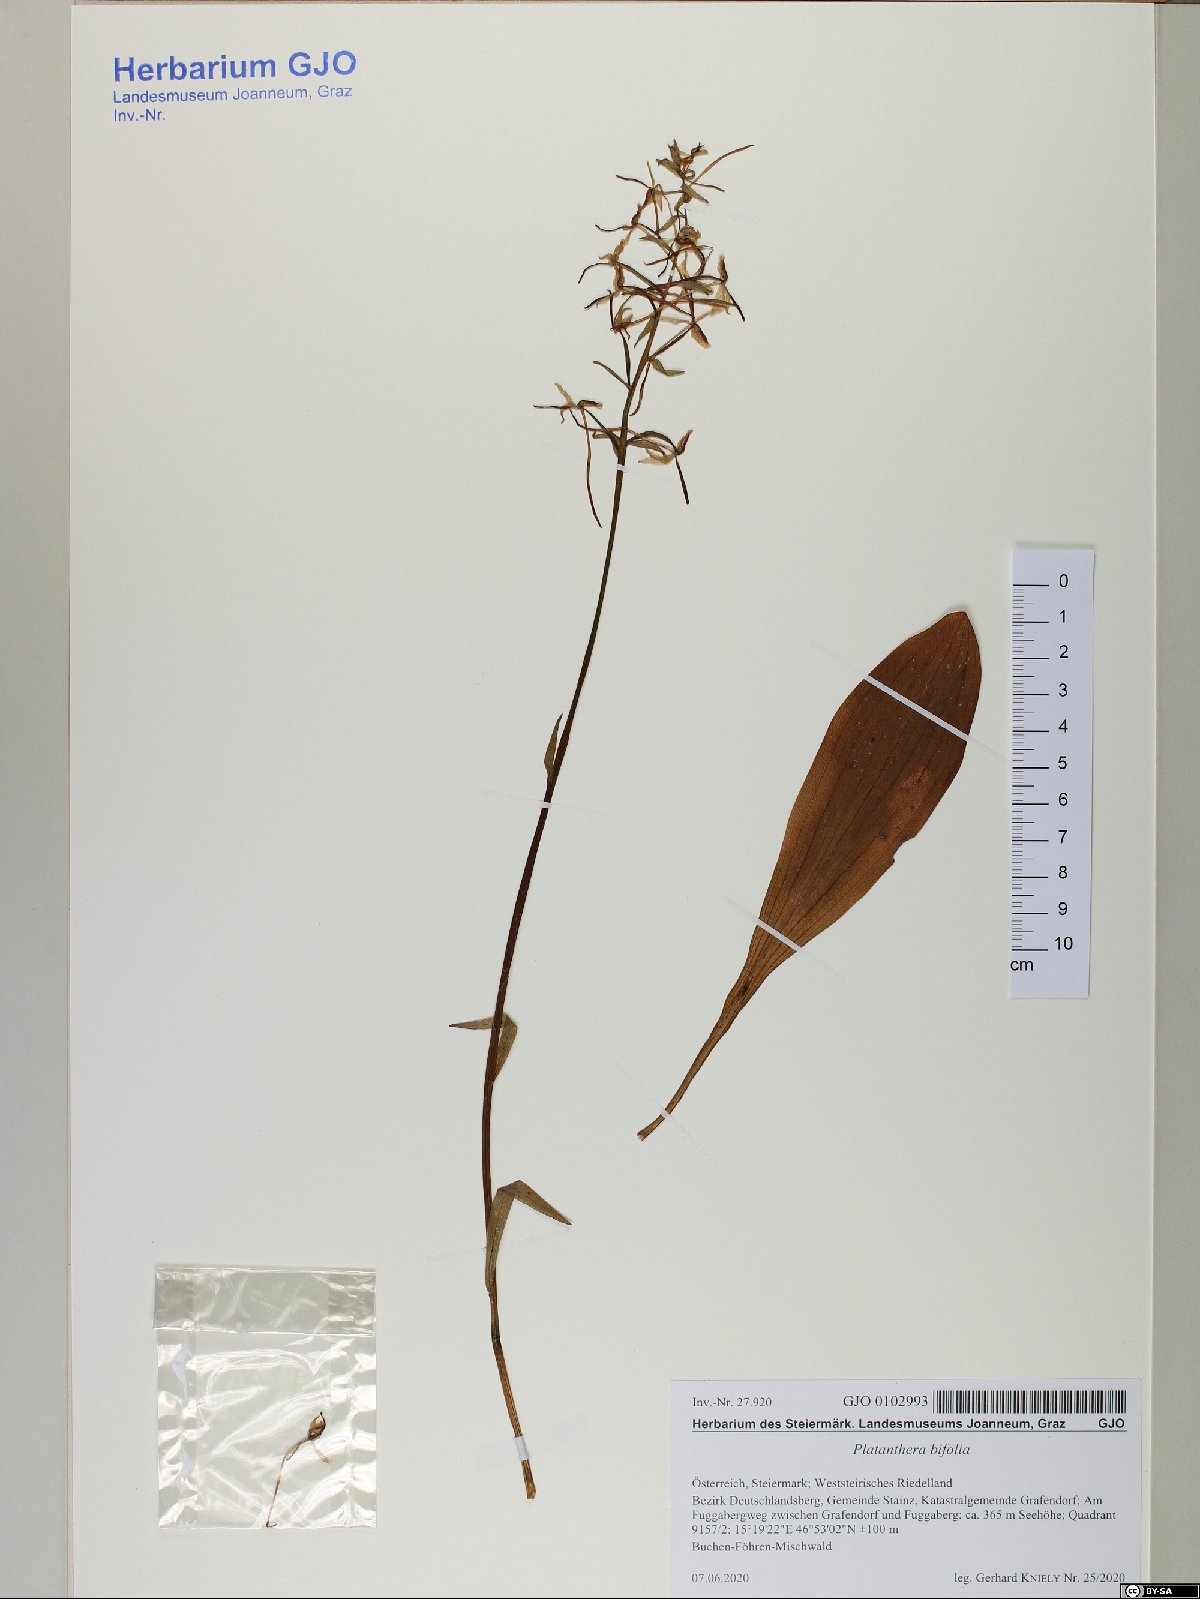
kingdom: Plantae
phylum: Tracheophyta
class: Liliopsida
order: Asparagales
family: Orchidaceae
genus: Platanthera
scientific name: Platanthera bifolia
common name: Lesser butterfly-orchid
